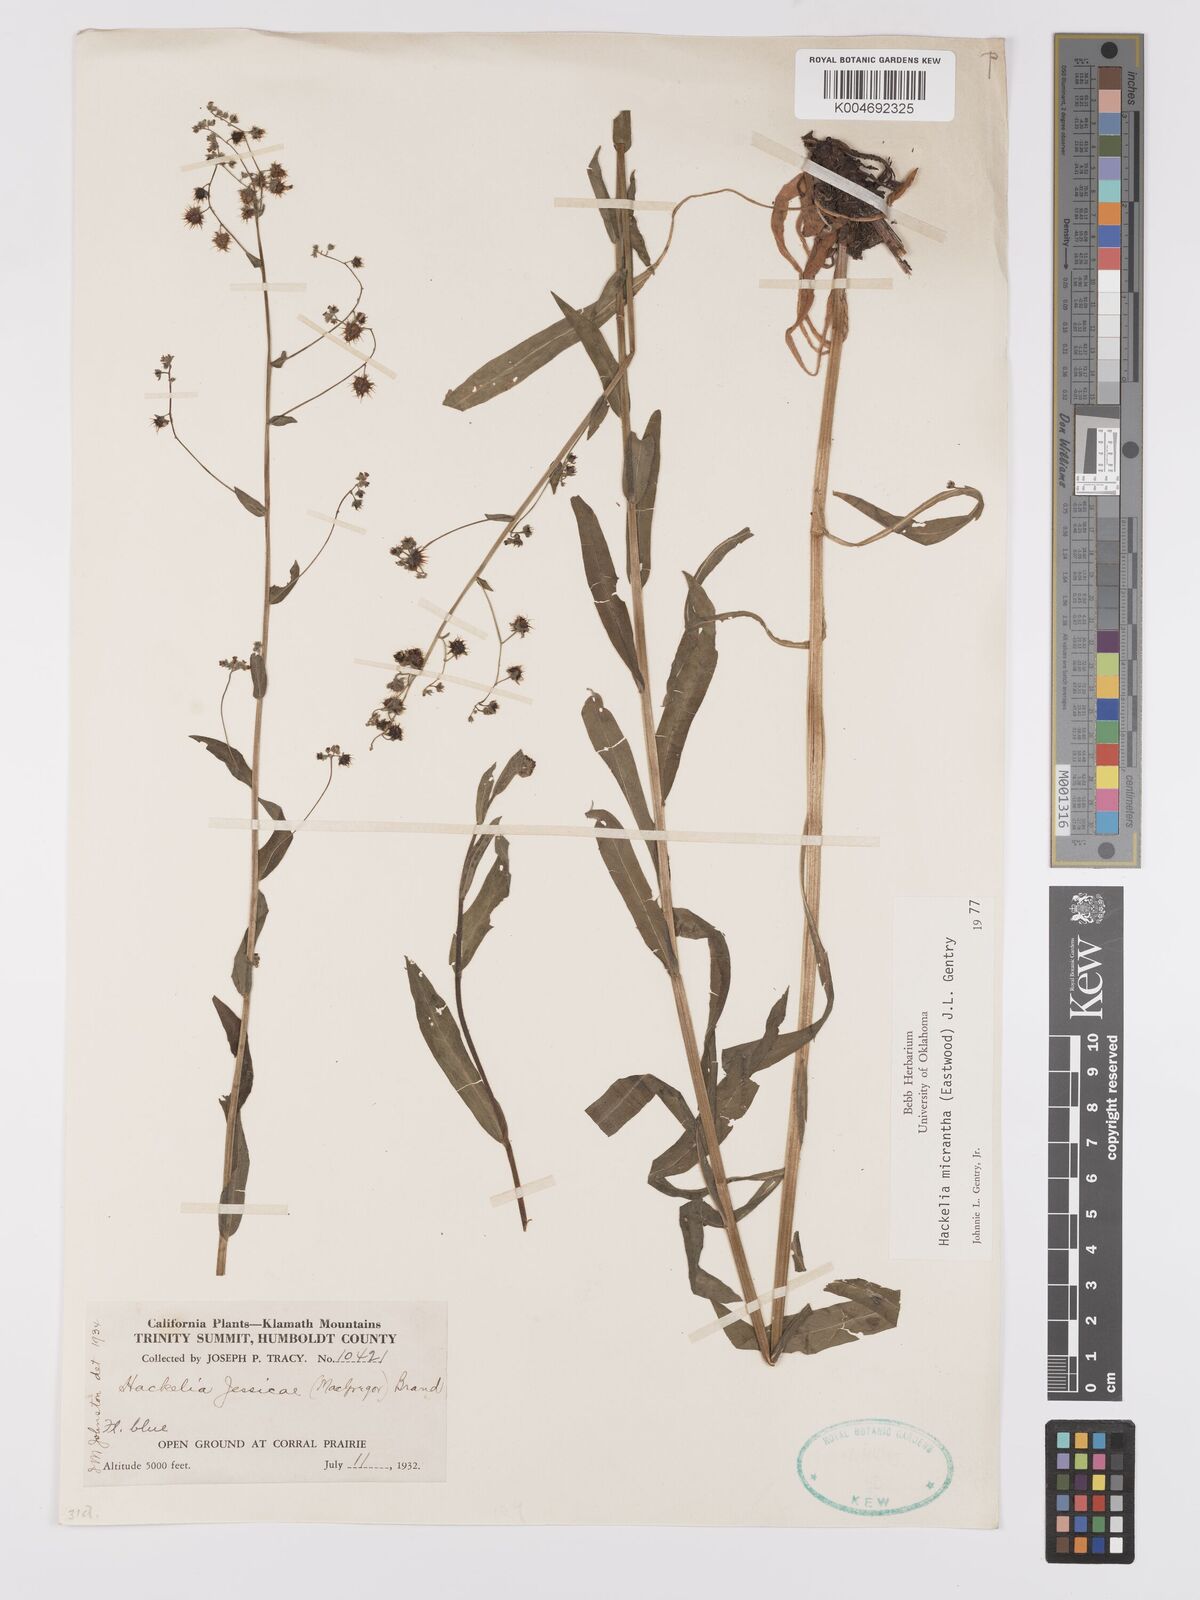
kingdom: Plantae
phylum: Tracheophyta
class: Magnoliopsida
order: Boraginales
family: Boraginaceae
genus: Hackelia
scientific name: Hackelia micrantha
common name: Meadow stickseed
